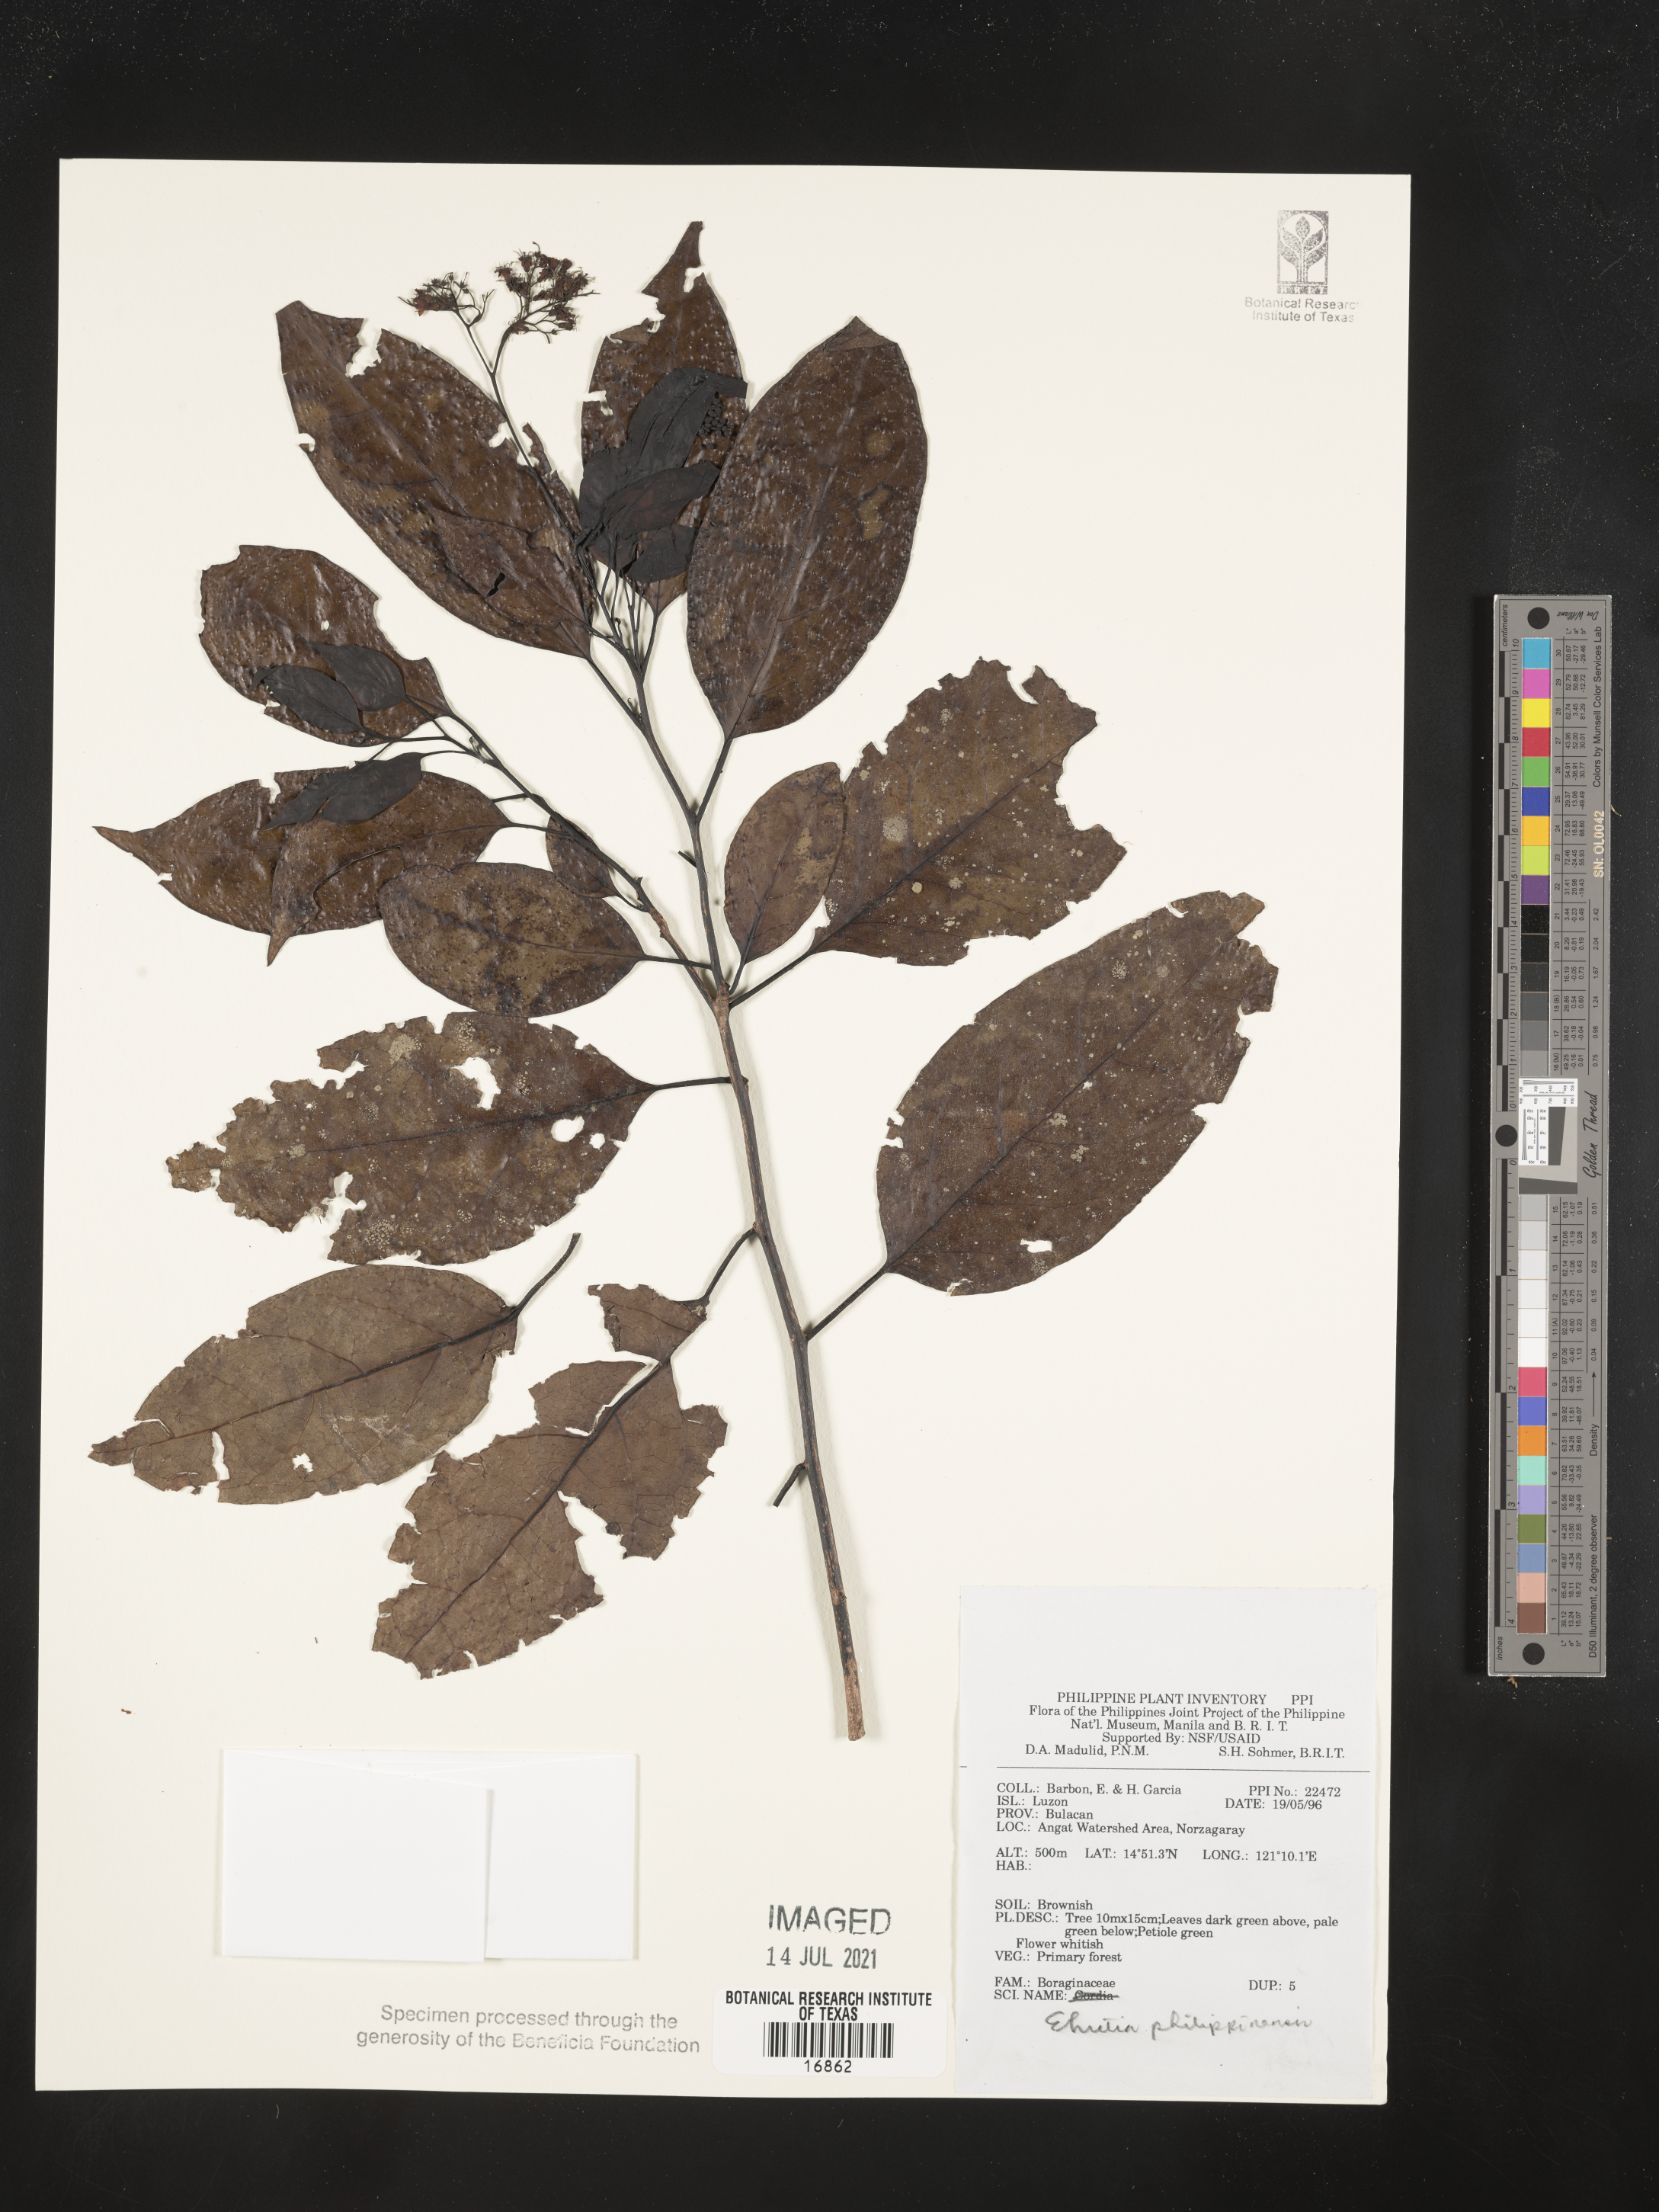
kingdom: Plantae
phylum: Tracheophyta
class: Magnoliopsida
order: Boraginales
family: Ehretiaceae
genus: Ehretia
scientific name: Ehretia philippinensis
